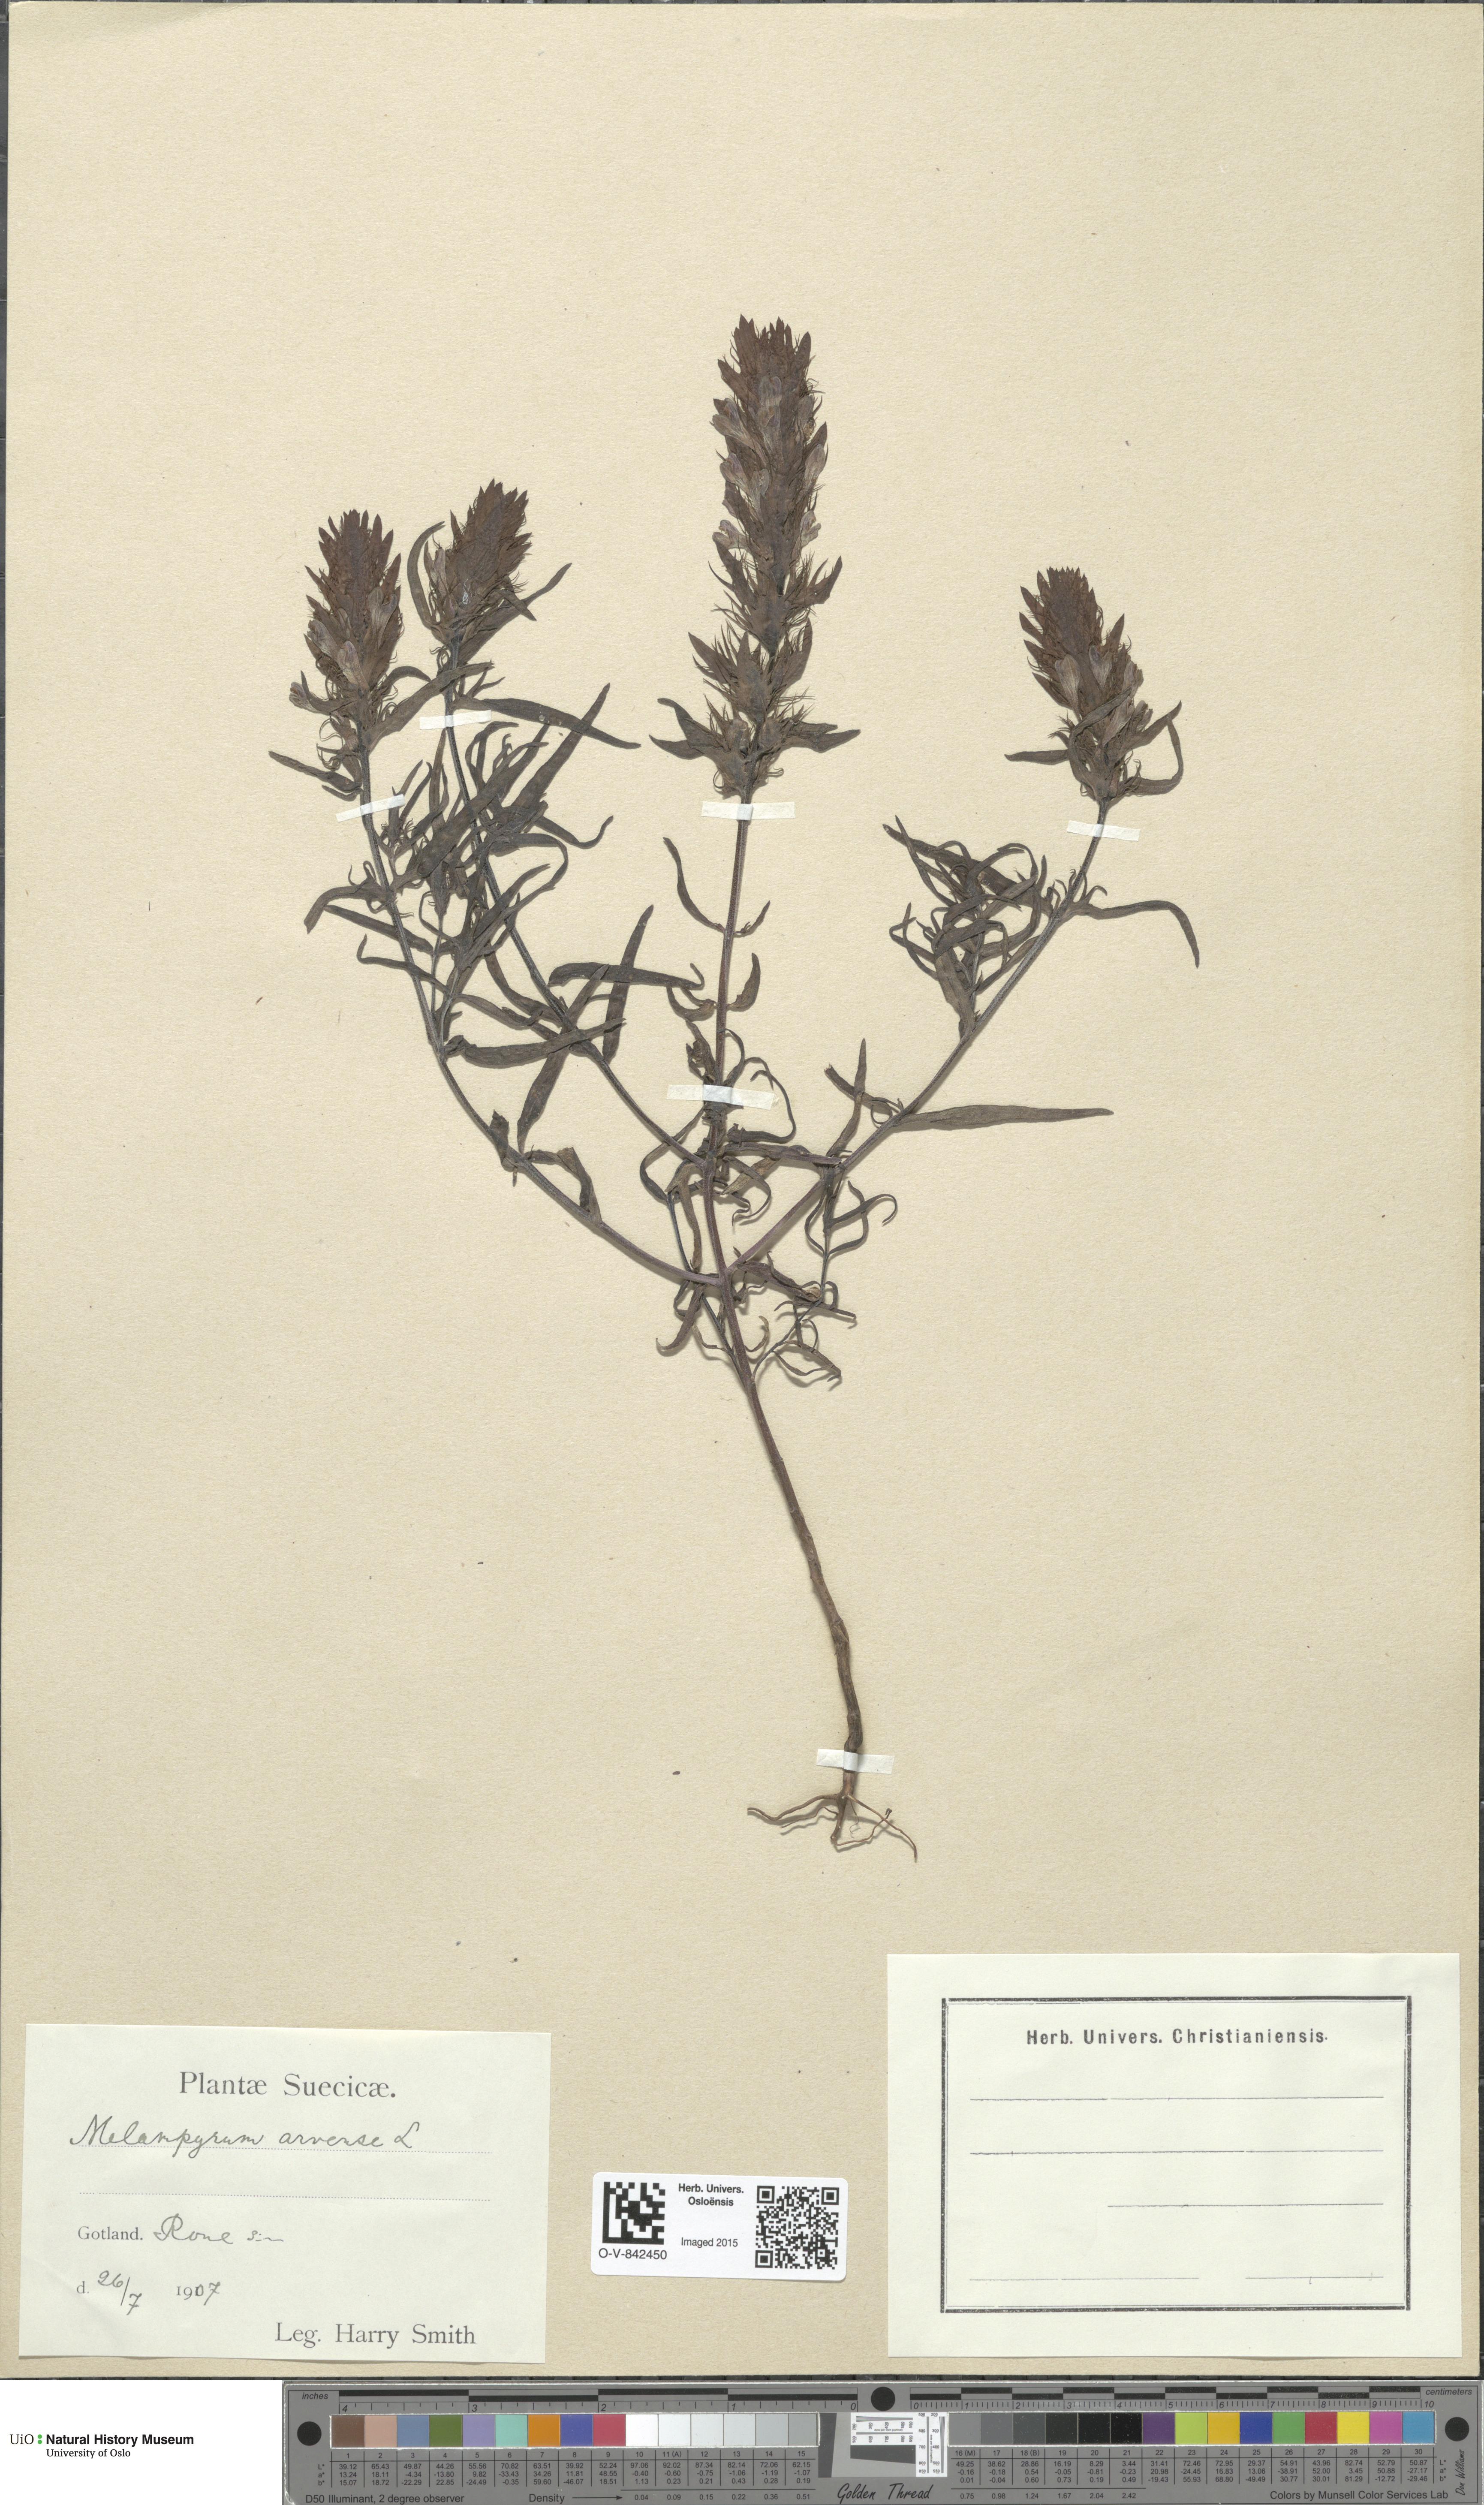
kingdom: Plantae
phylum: Tracheophyta
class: Magnoliopsida
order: Lamiales
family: Orobanchaceae
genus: Melampyrum
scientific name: Melampyrum arvense
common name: Field cow-wheat
